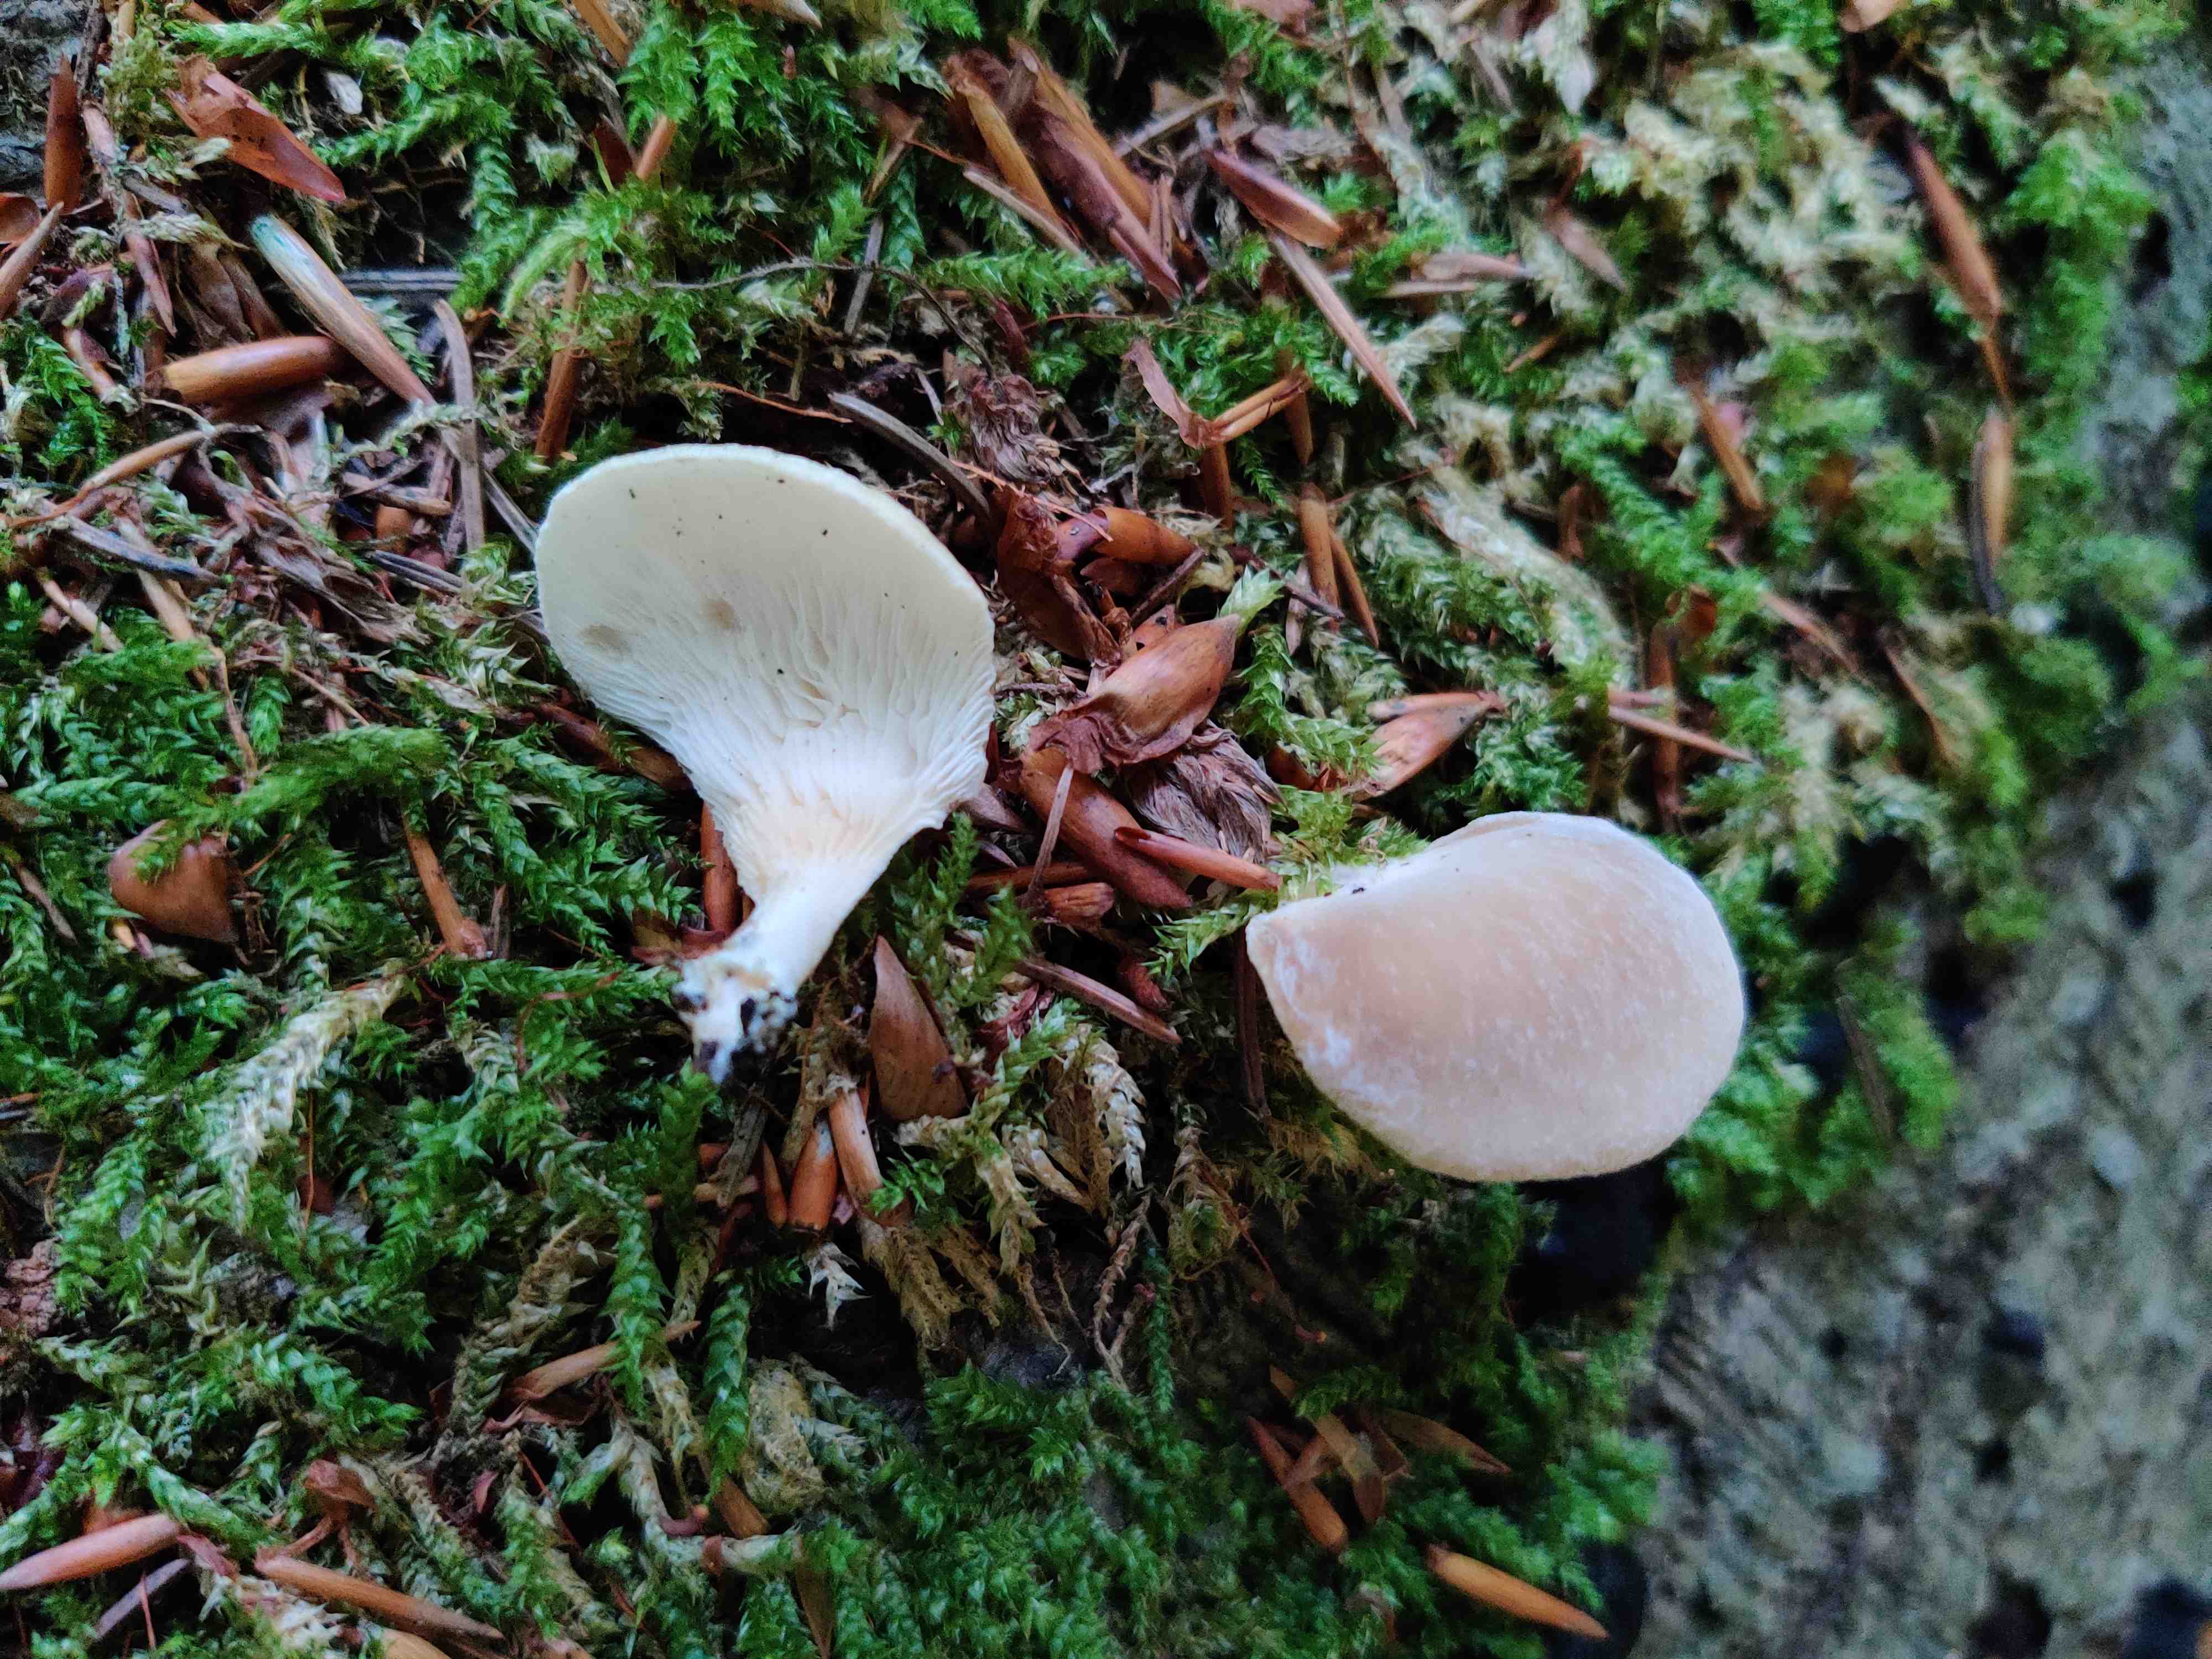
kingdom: Fungi
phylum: Basidiomycota
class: Agaricomycetes
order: Agaricales
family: Pleurotaceae
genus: Hohenbuehelia
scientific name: Hohenbuehelia auriscalpium
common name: spatel-filthat
